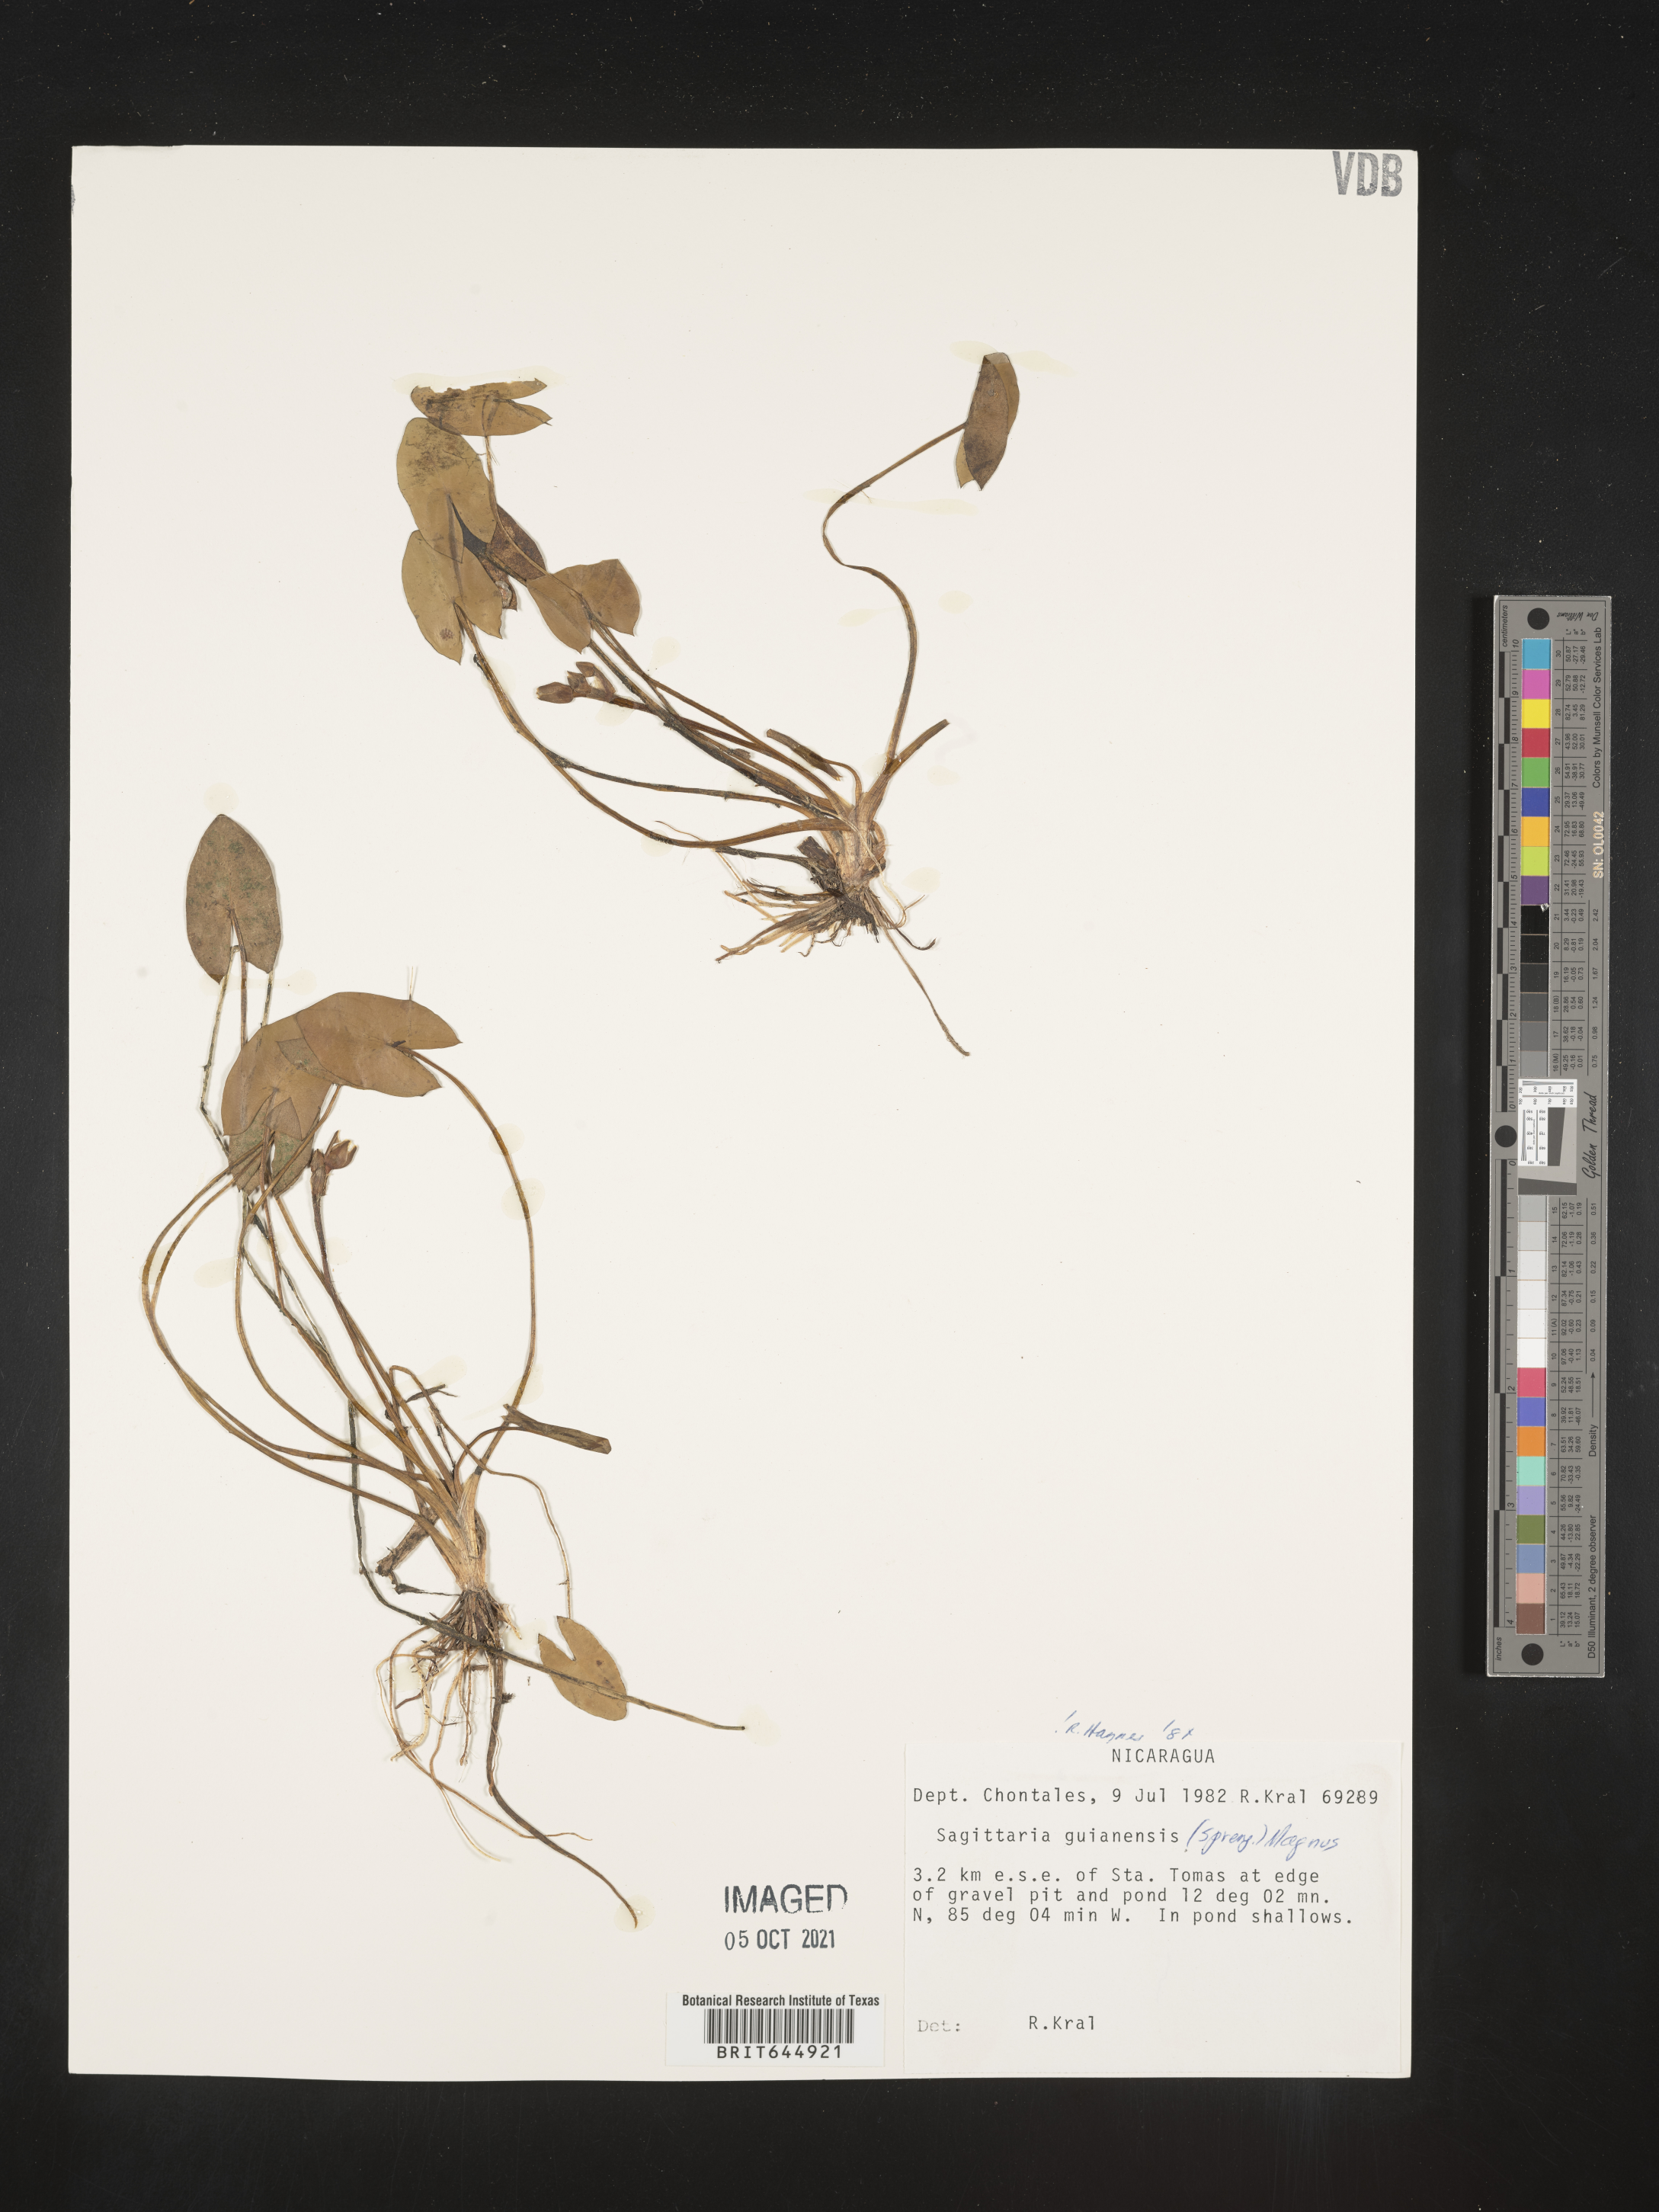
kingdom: Plantae
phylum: Tracheophyta
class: Liliopsida
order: Alismatales
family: Alismataceae
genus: Sagittaria
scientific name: Sagittaria guayanensis
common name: Guyanese arrowhead
